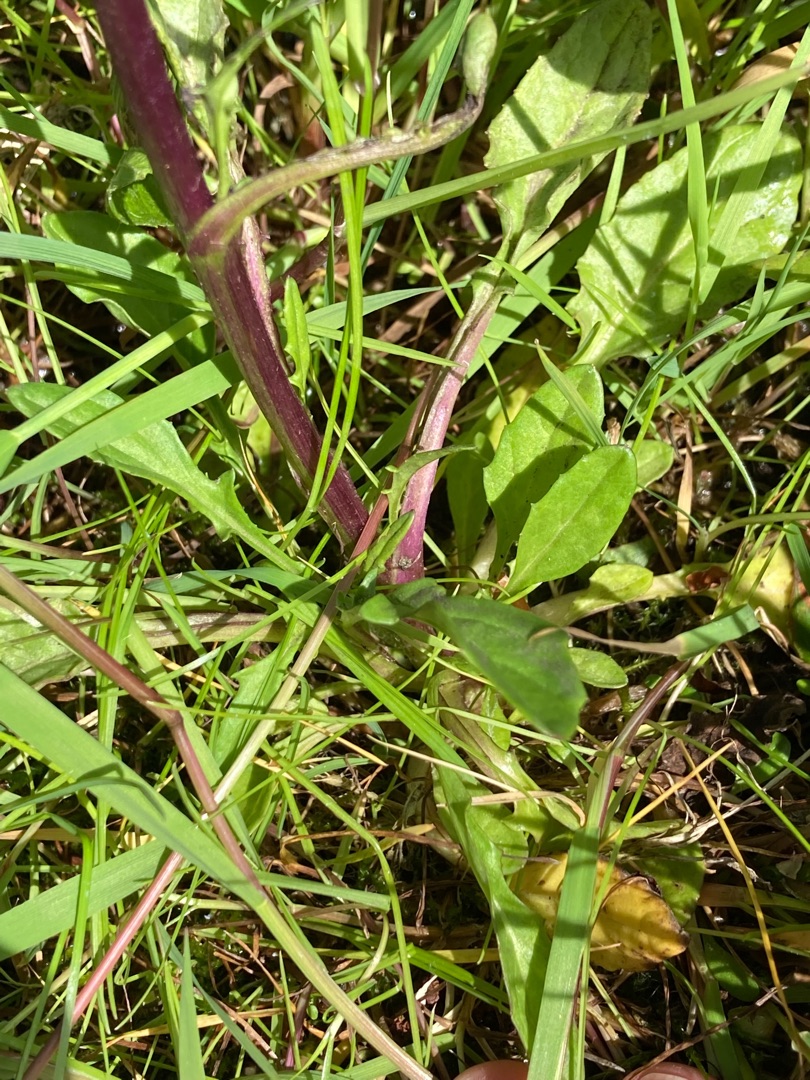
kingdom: Plantae
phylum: Tracheophyta
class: Magnoliopsida
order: Asterales
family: Asteraceae
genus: Jacobaea
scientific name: Jacobaea aquatica
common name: Vand-brandbæger
